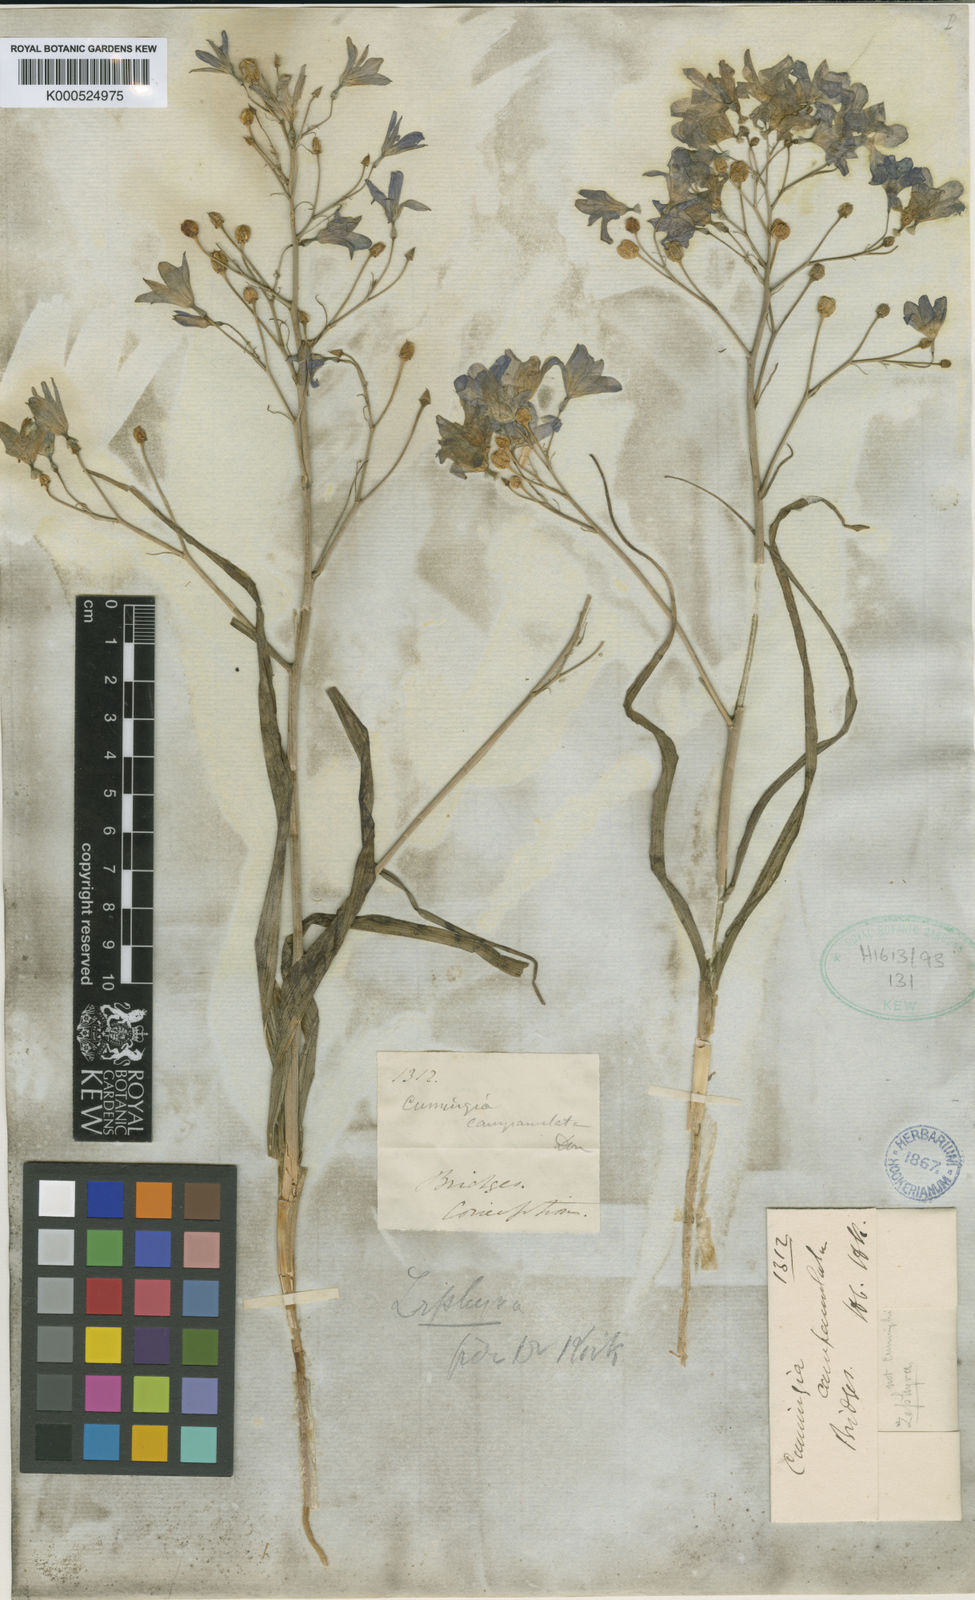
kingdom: Plantae
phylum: Tracheophyta
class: Liliopsida
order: Asparagales
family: Tecophilaeaceae
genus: Zephyra
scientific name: Zephyra elegans
